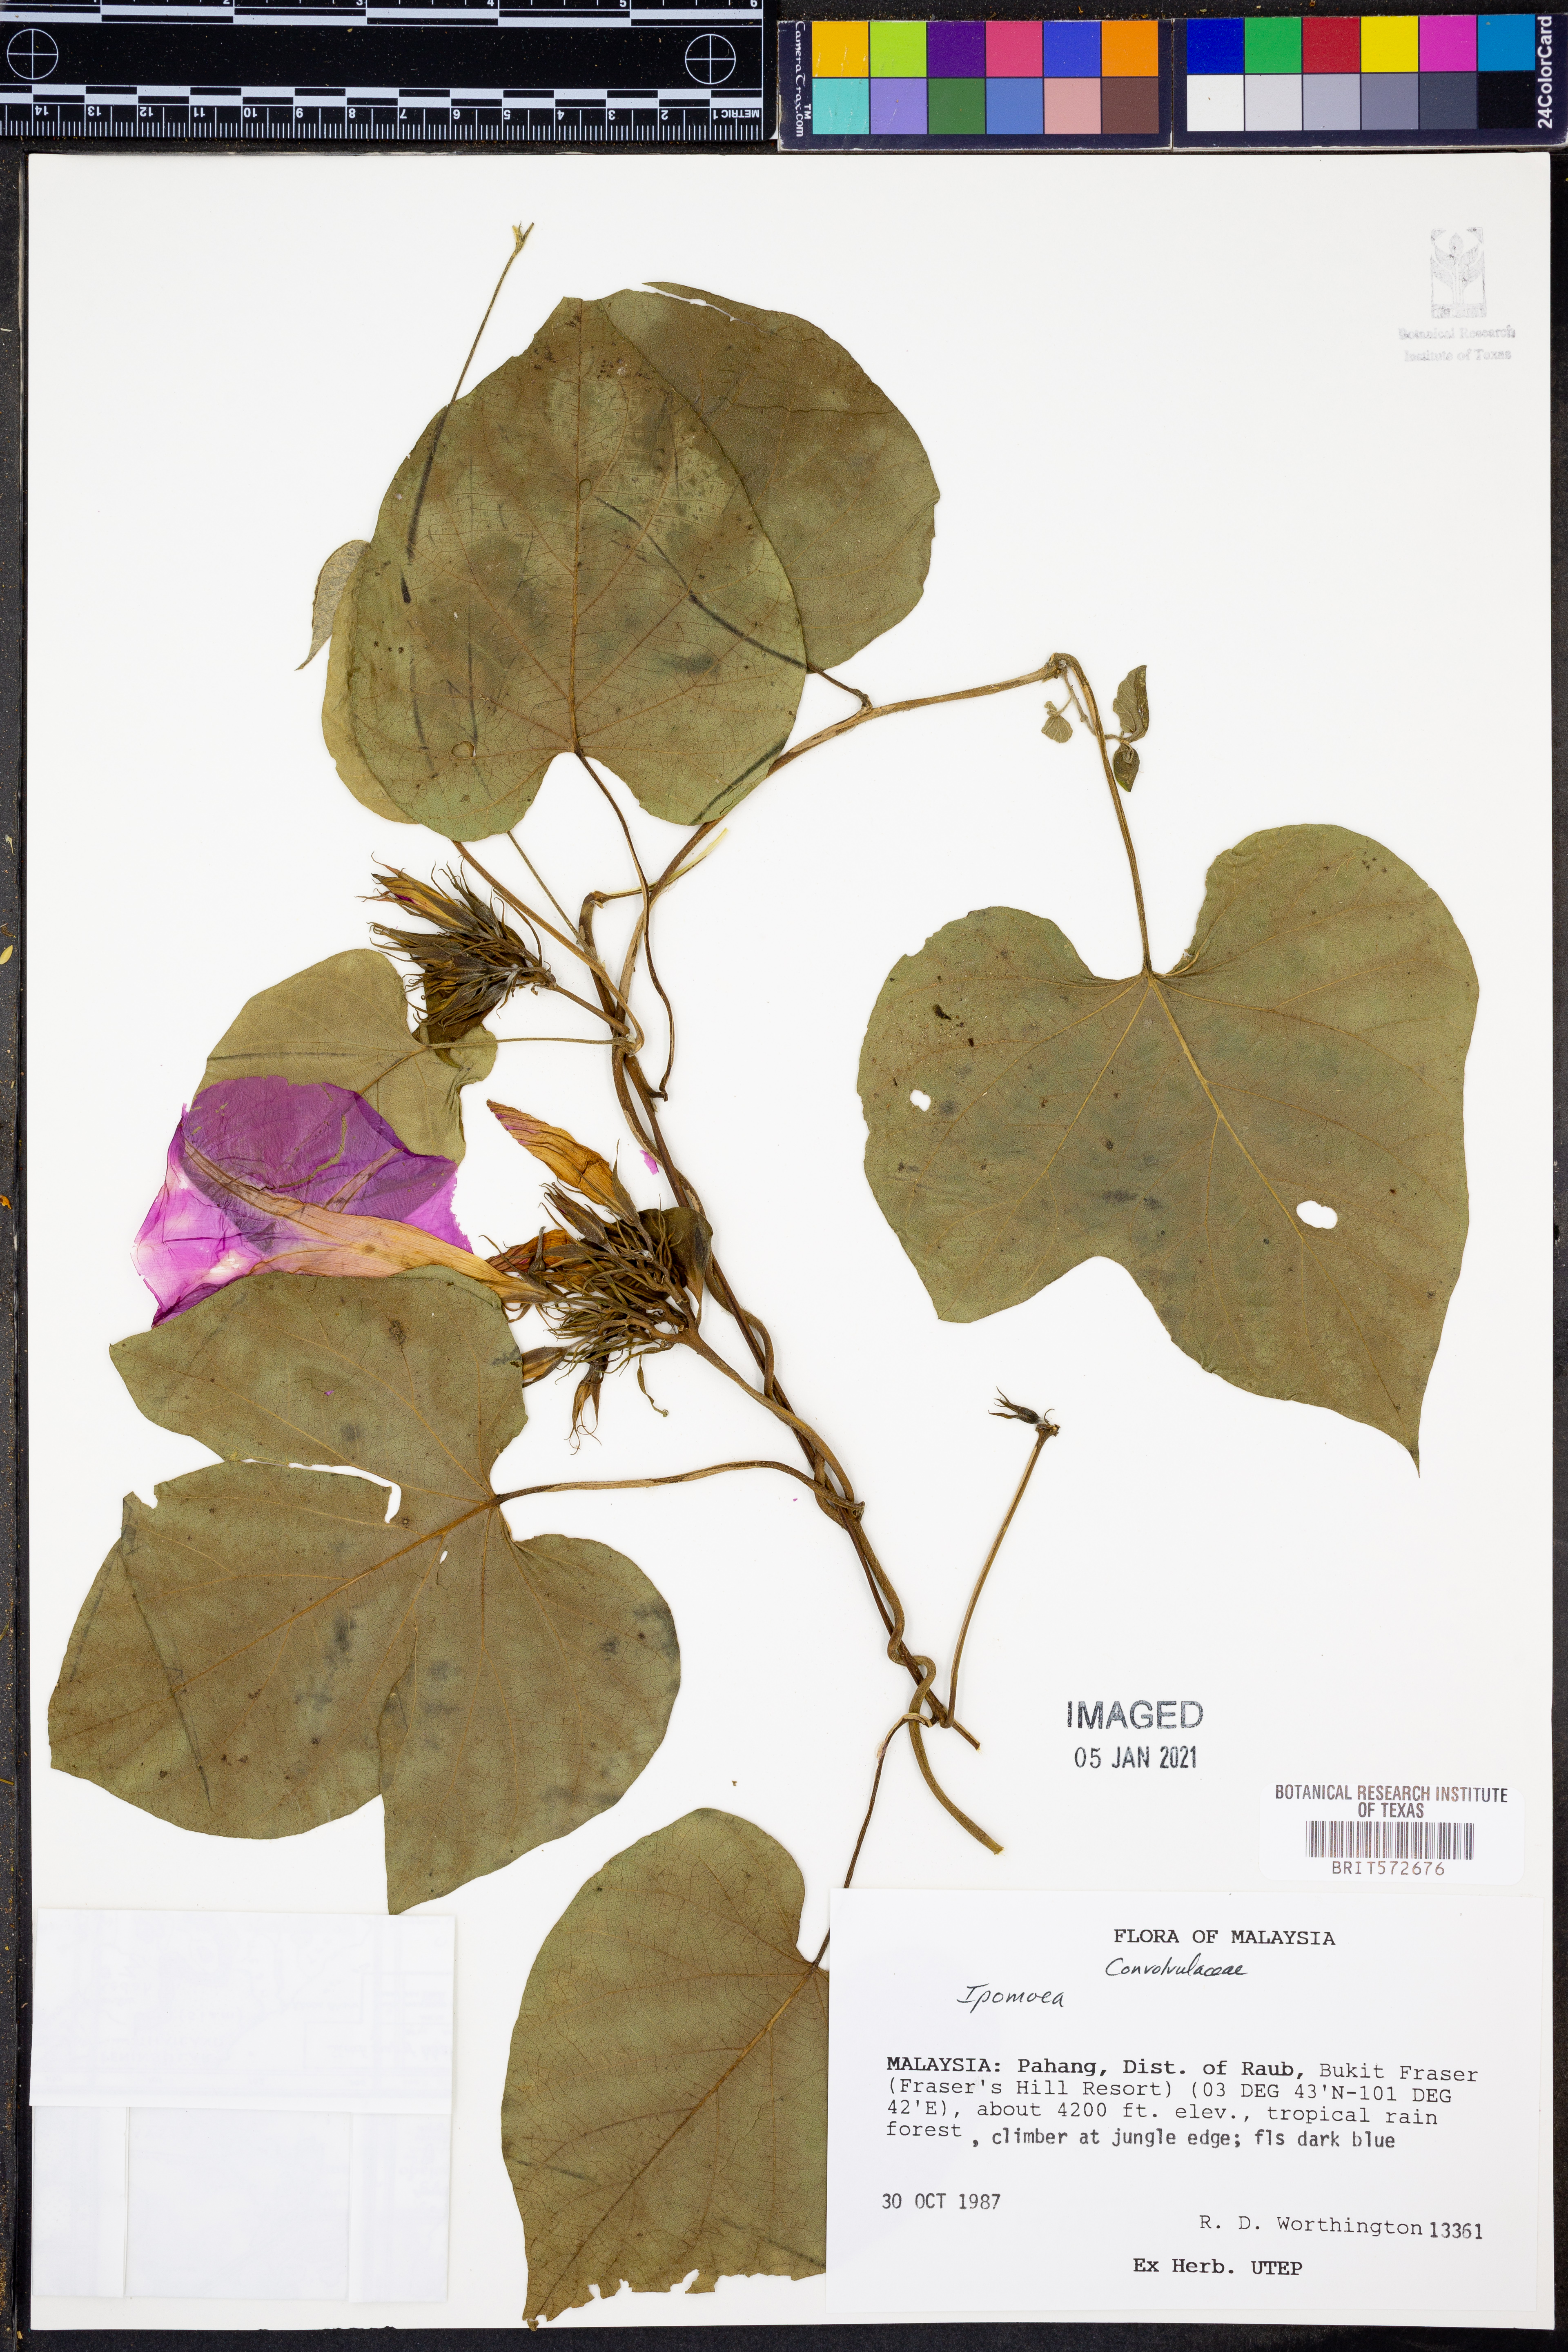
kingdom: Plantae
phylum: Tracheophyta
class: Magnoliopsida
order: Solanales
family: Convolvulaceae
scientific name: Convolvulaceae
